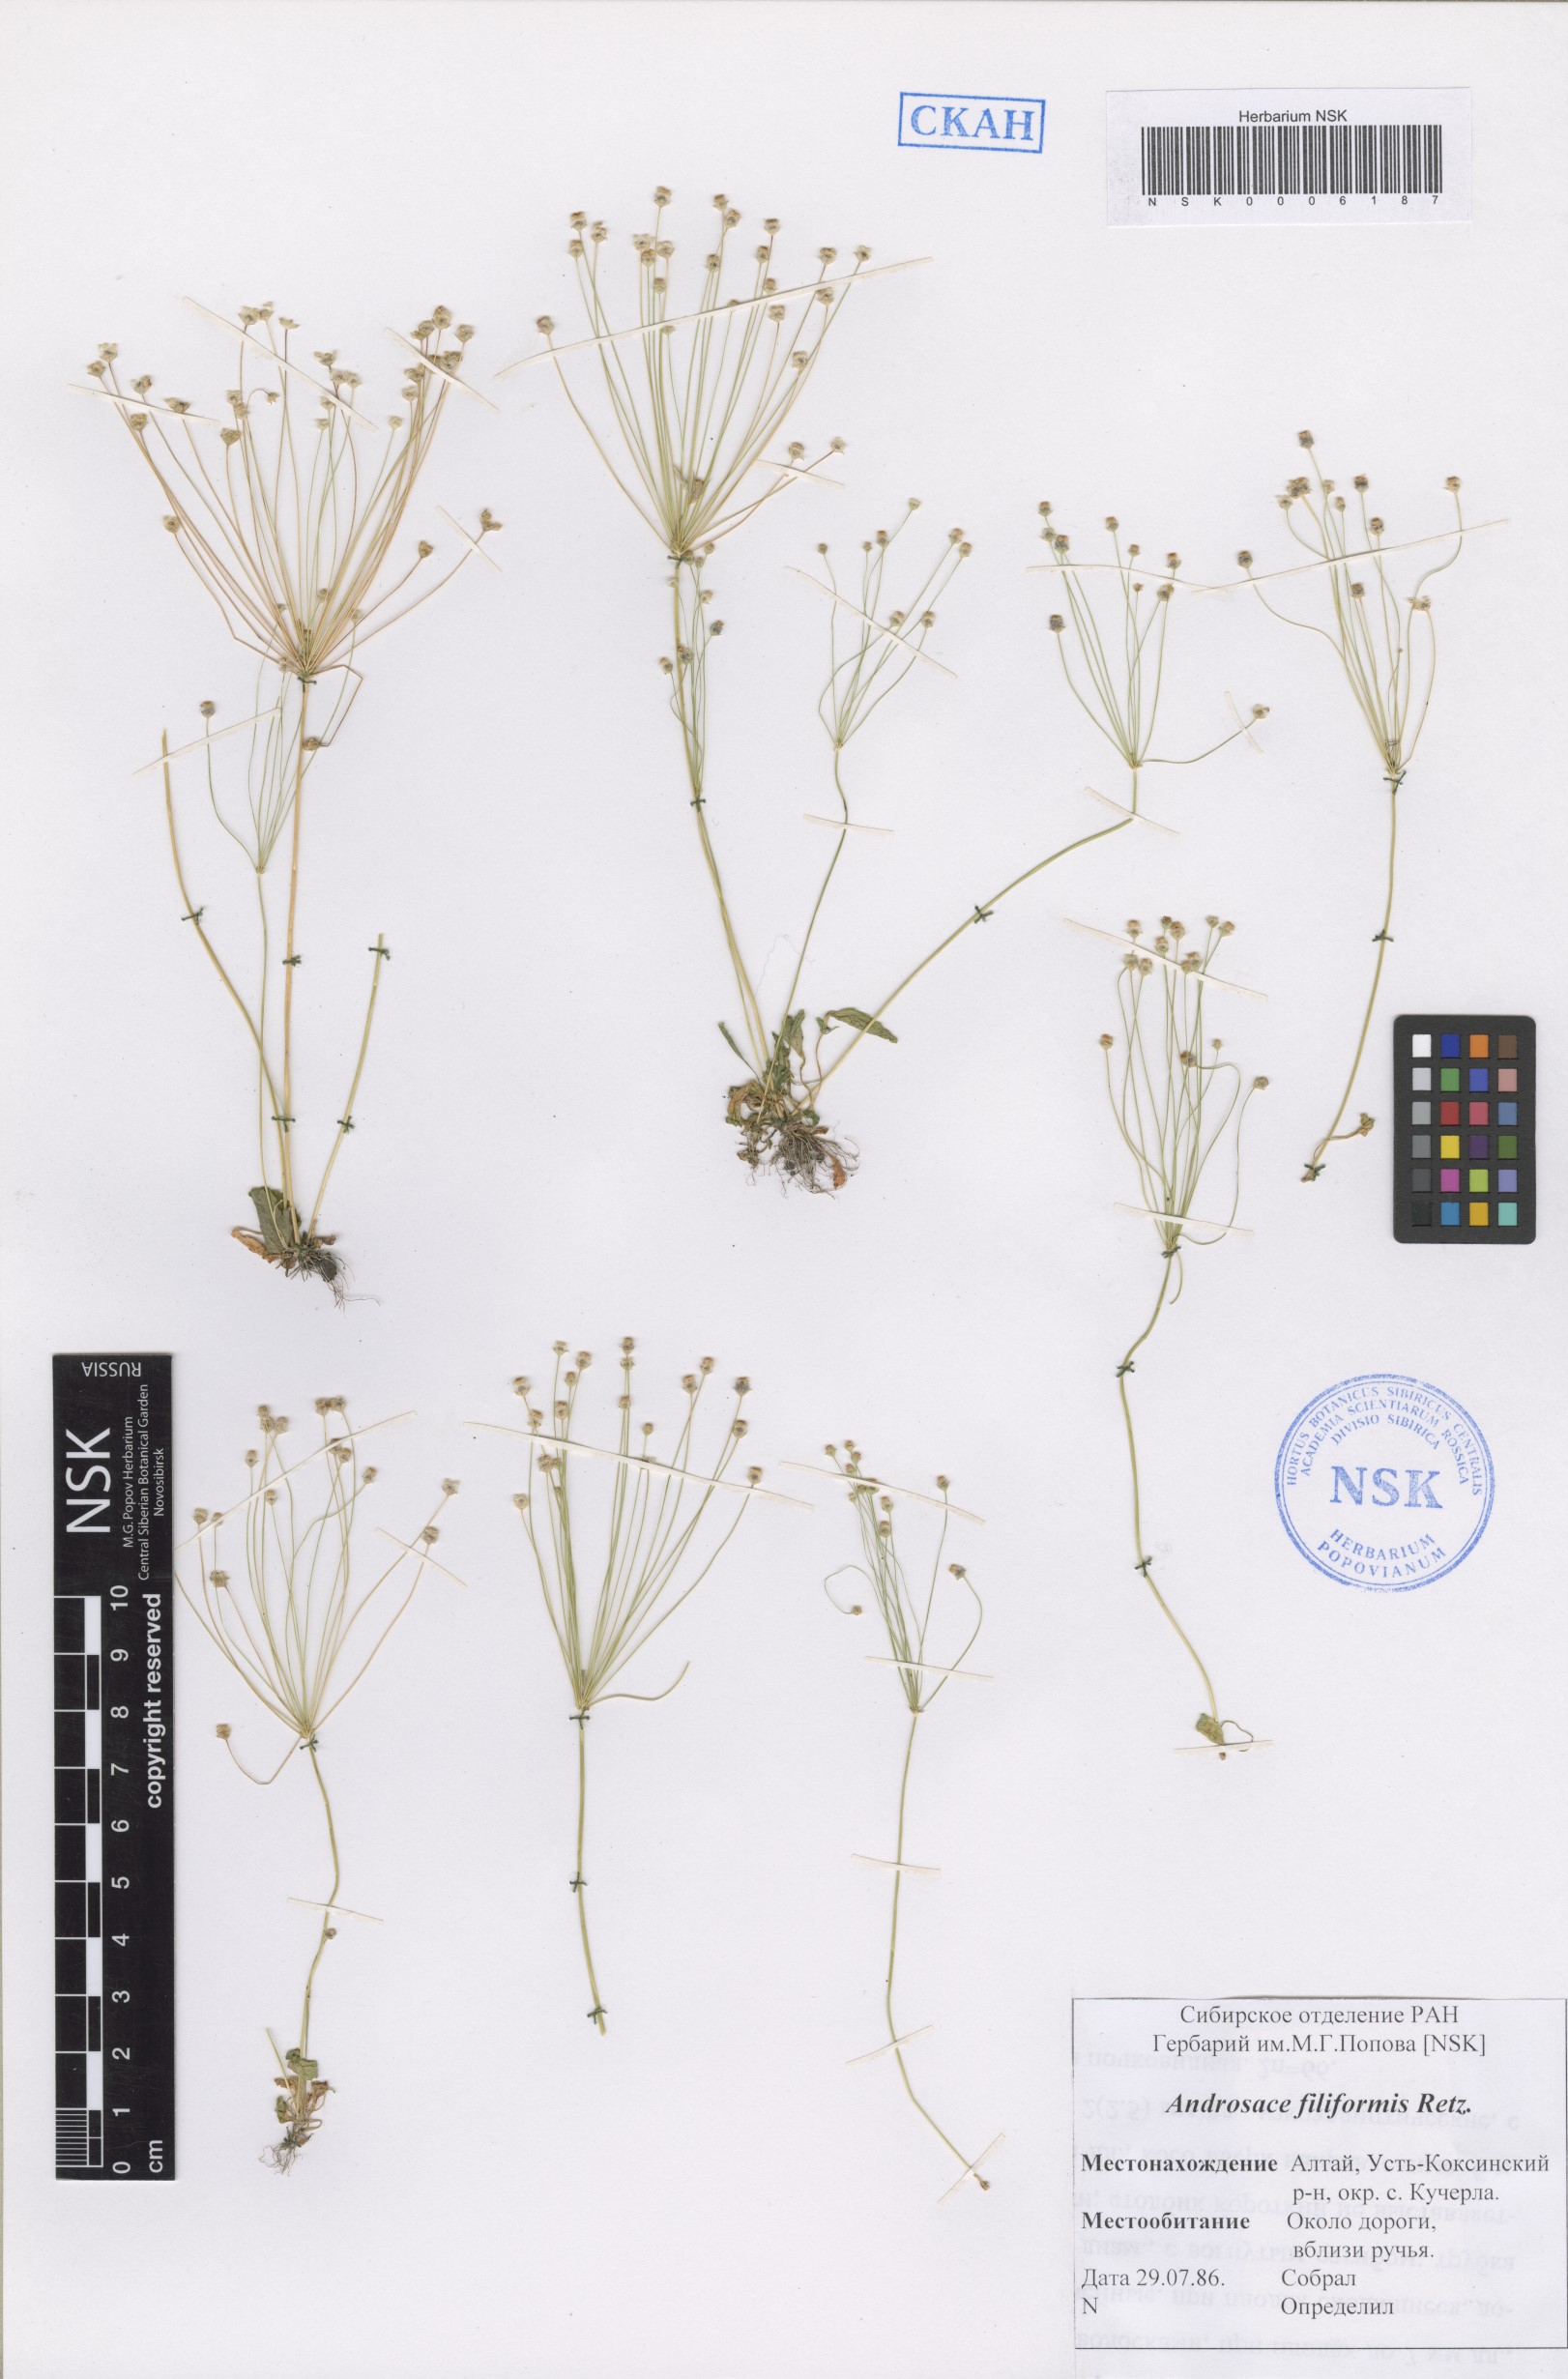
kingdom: Plantae
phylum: Tracheophyta
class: Magnoliopsida
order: Ericales
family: Primulaceae
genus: Androsace
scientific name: Androsace filiformis
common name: Filiform rock jasmine
